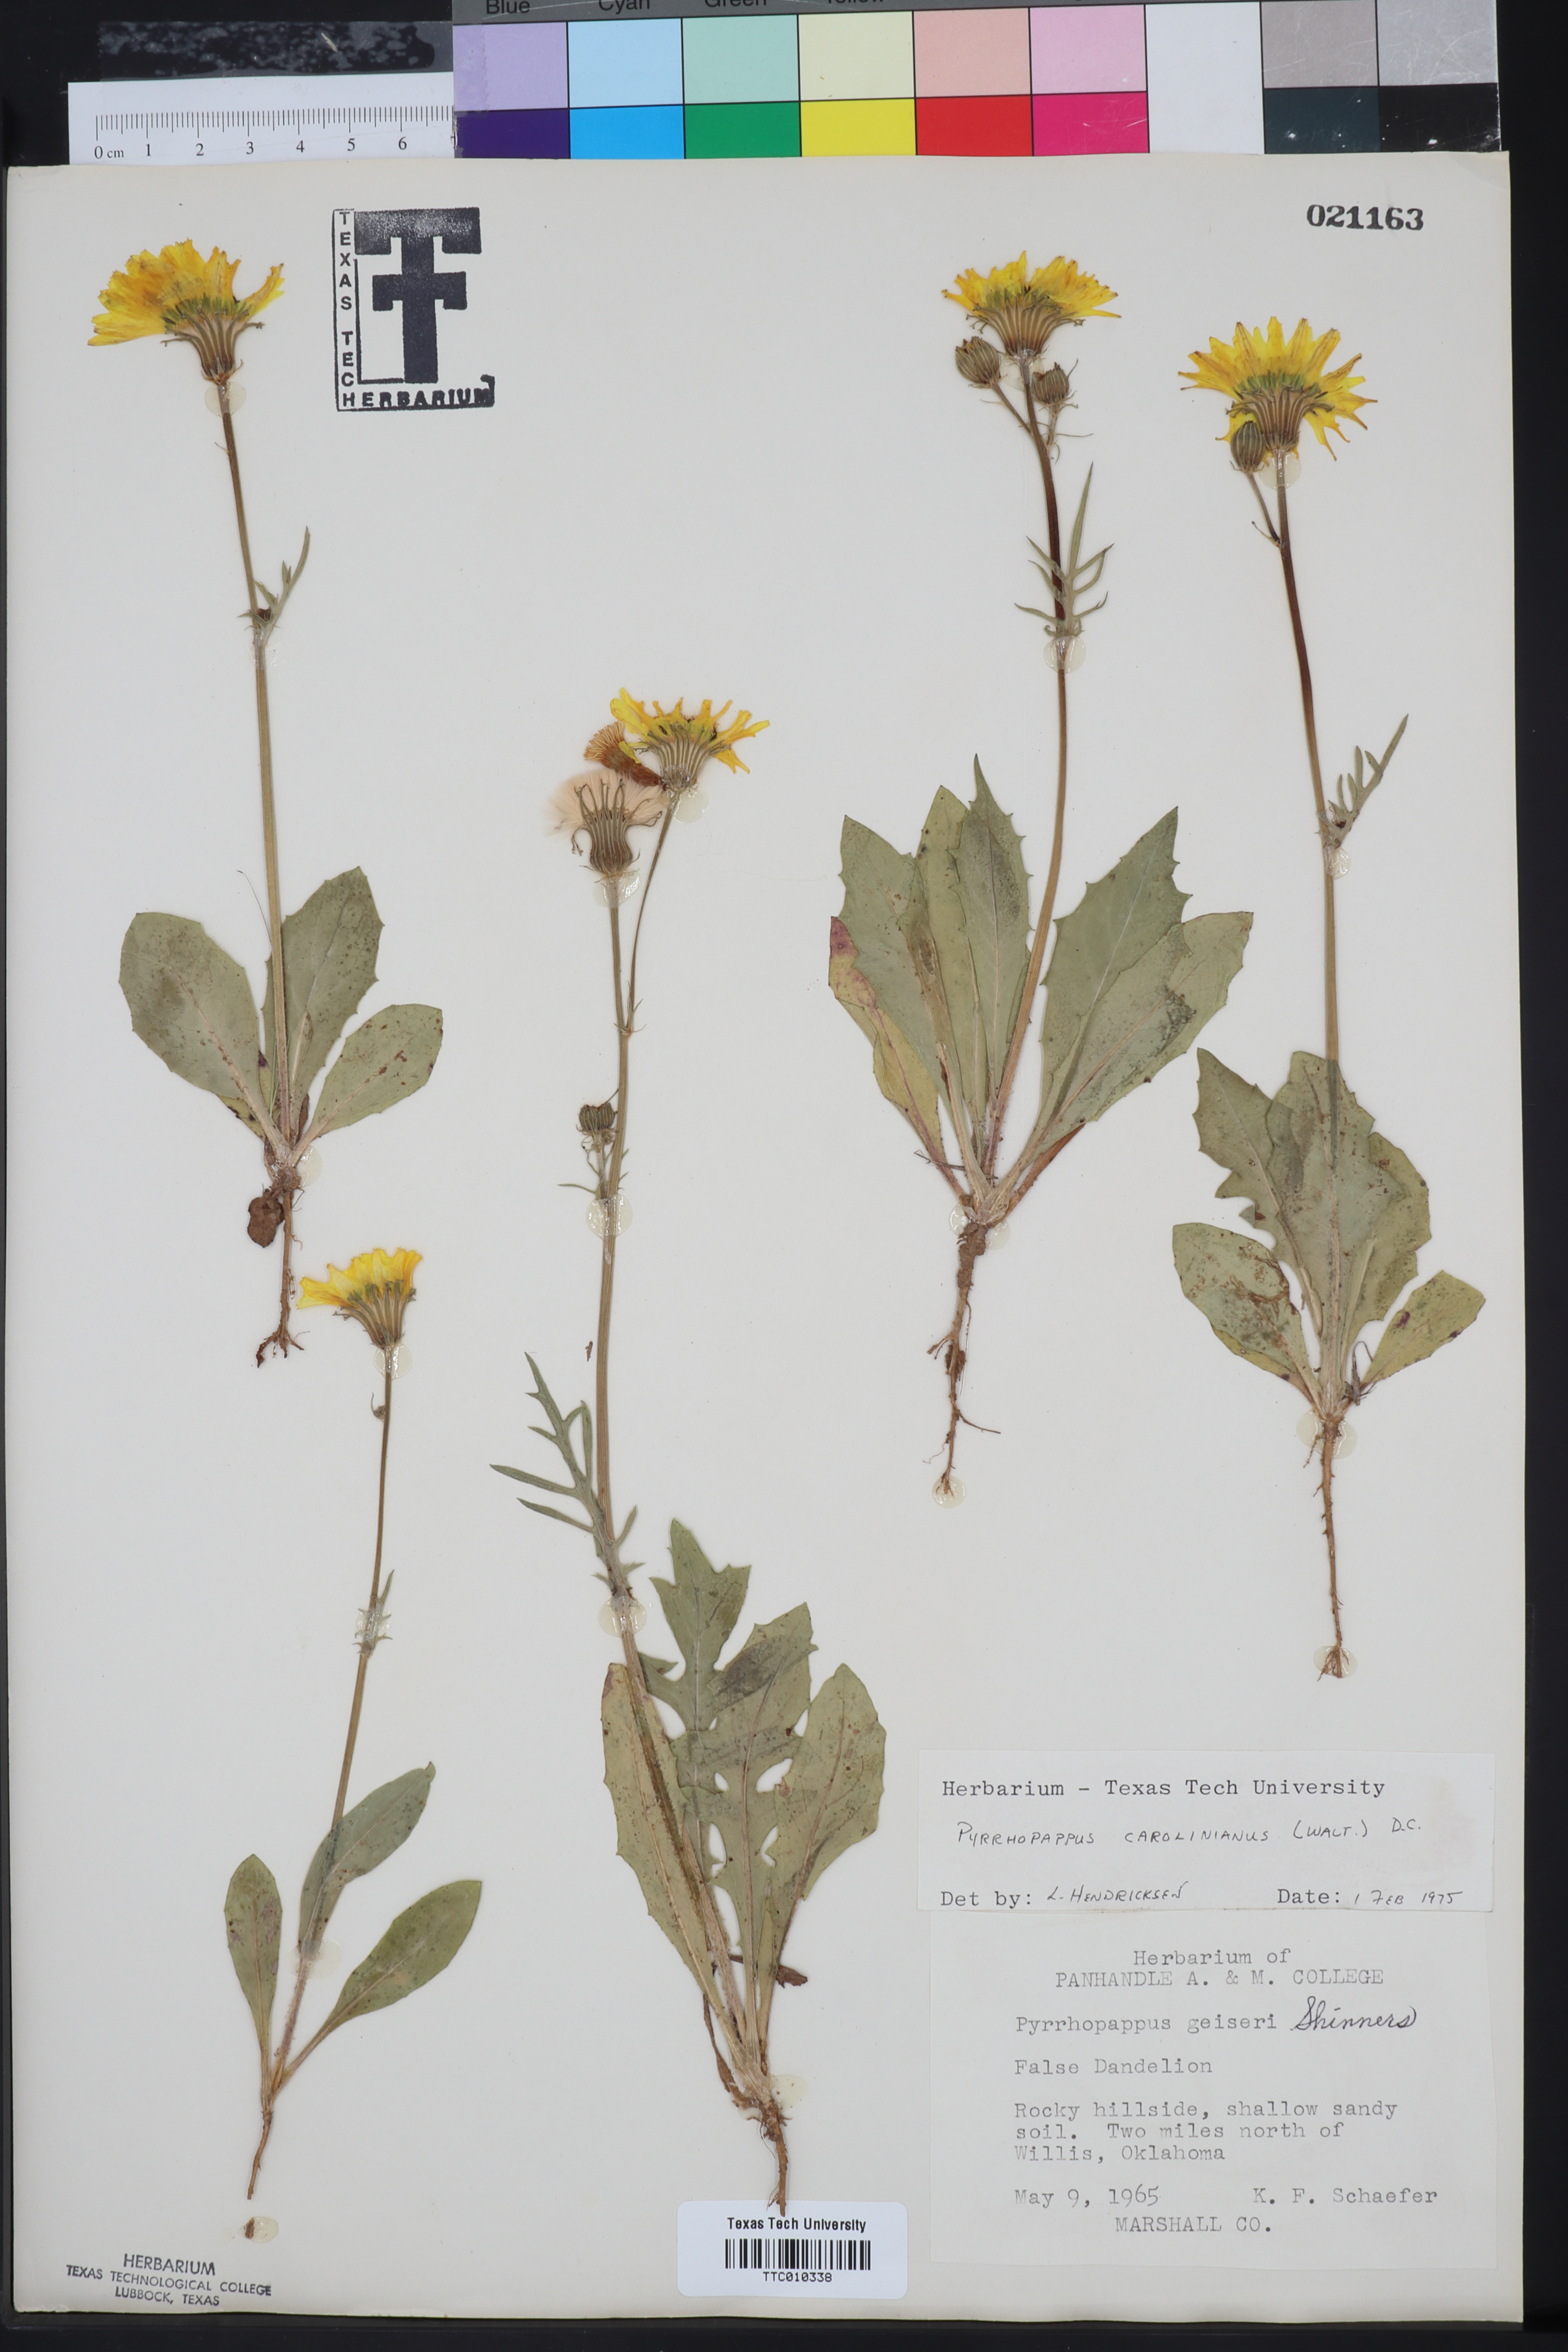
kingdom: Plantae
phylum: Tracheophyta
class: Magnoliopsida
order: Asterales
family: Asteraceae
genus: Pyrrhopappus
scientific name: Pyrrhopappus carolinianus
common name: Carolina desert-chicory
